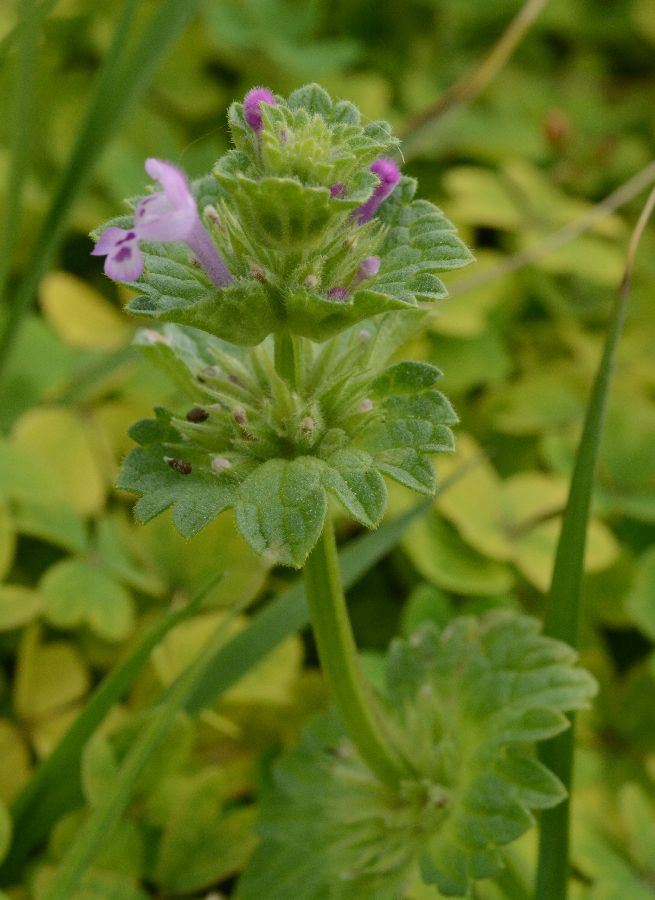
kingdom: Plantae
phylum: Tracheophyta
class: Magnoliopsida
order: Lamiales
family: Lamiaceae
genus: Lamium
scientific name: Lamium amplexicaule
